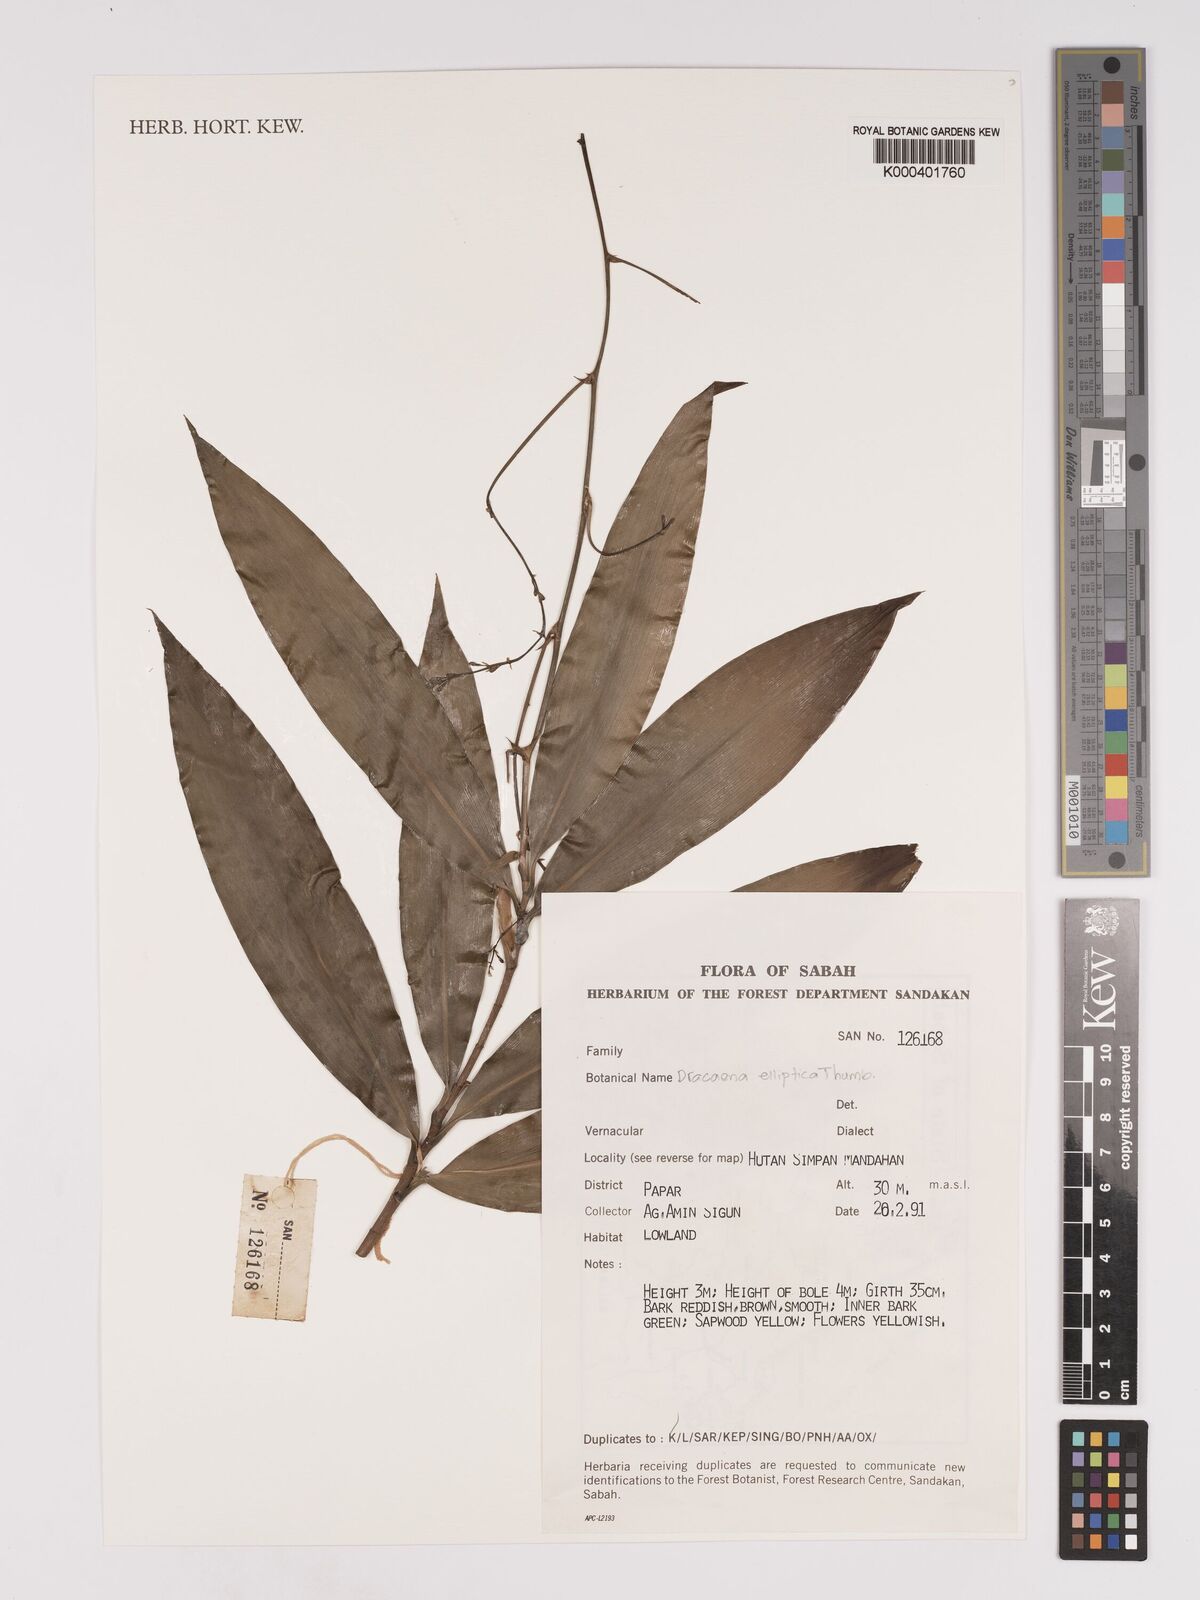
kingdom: Plantae
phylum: Tracheophyta
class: Liliopsida
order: Asparagales
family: Asparagaceae
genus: Dracaena
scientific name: Dracaena elliptica
